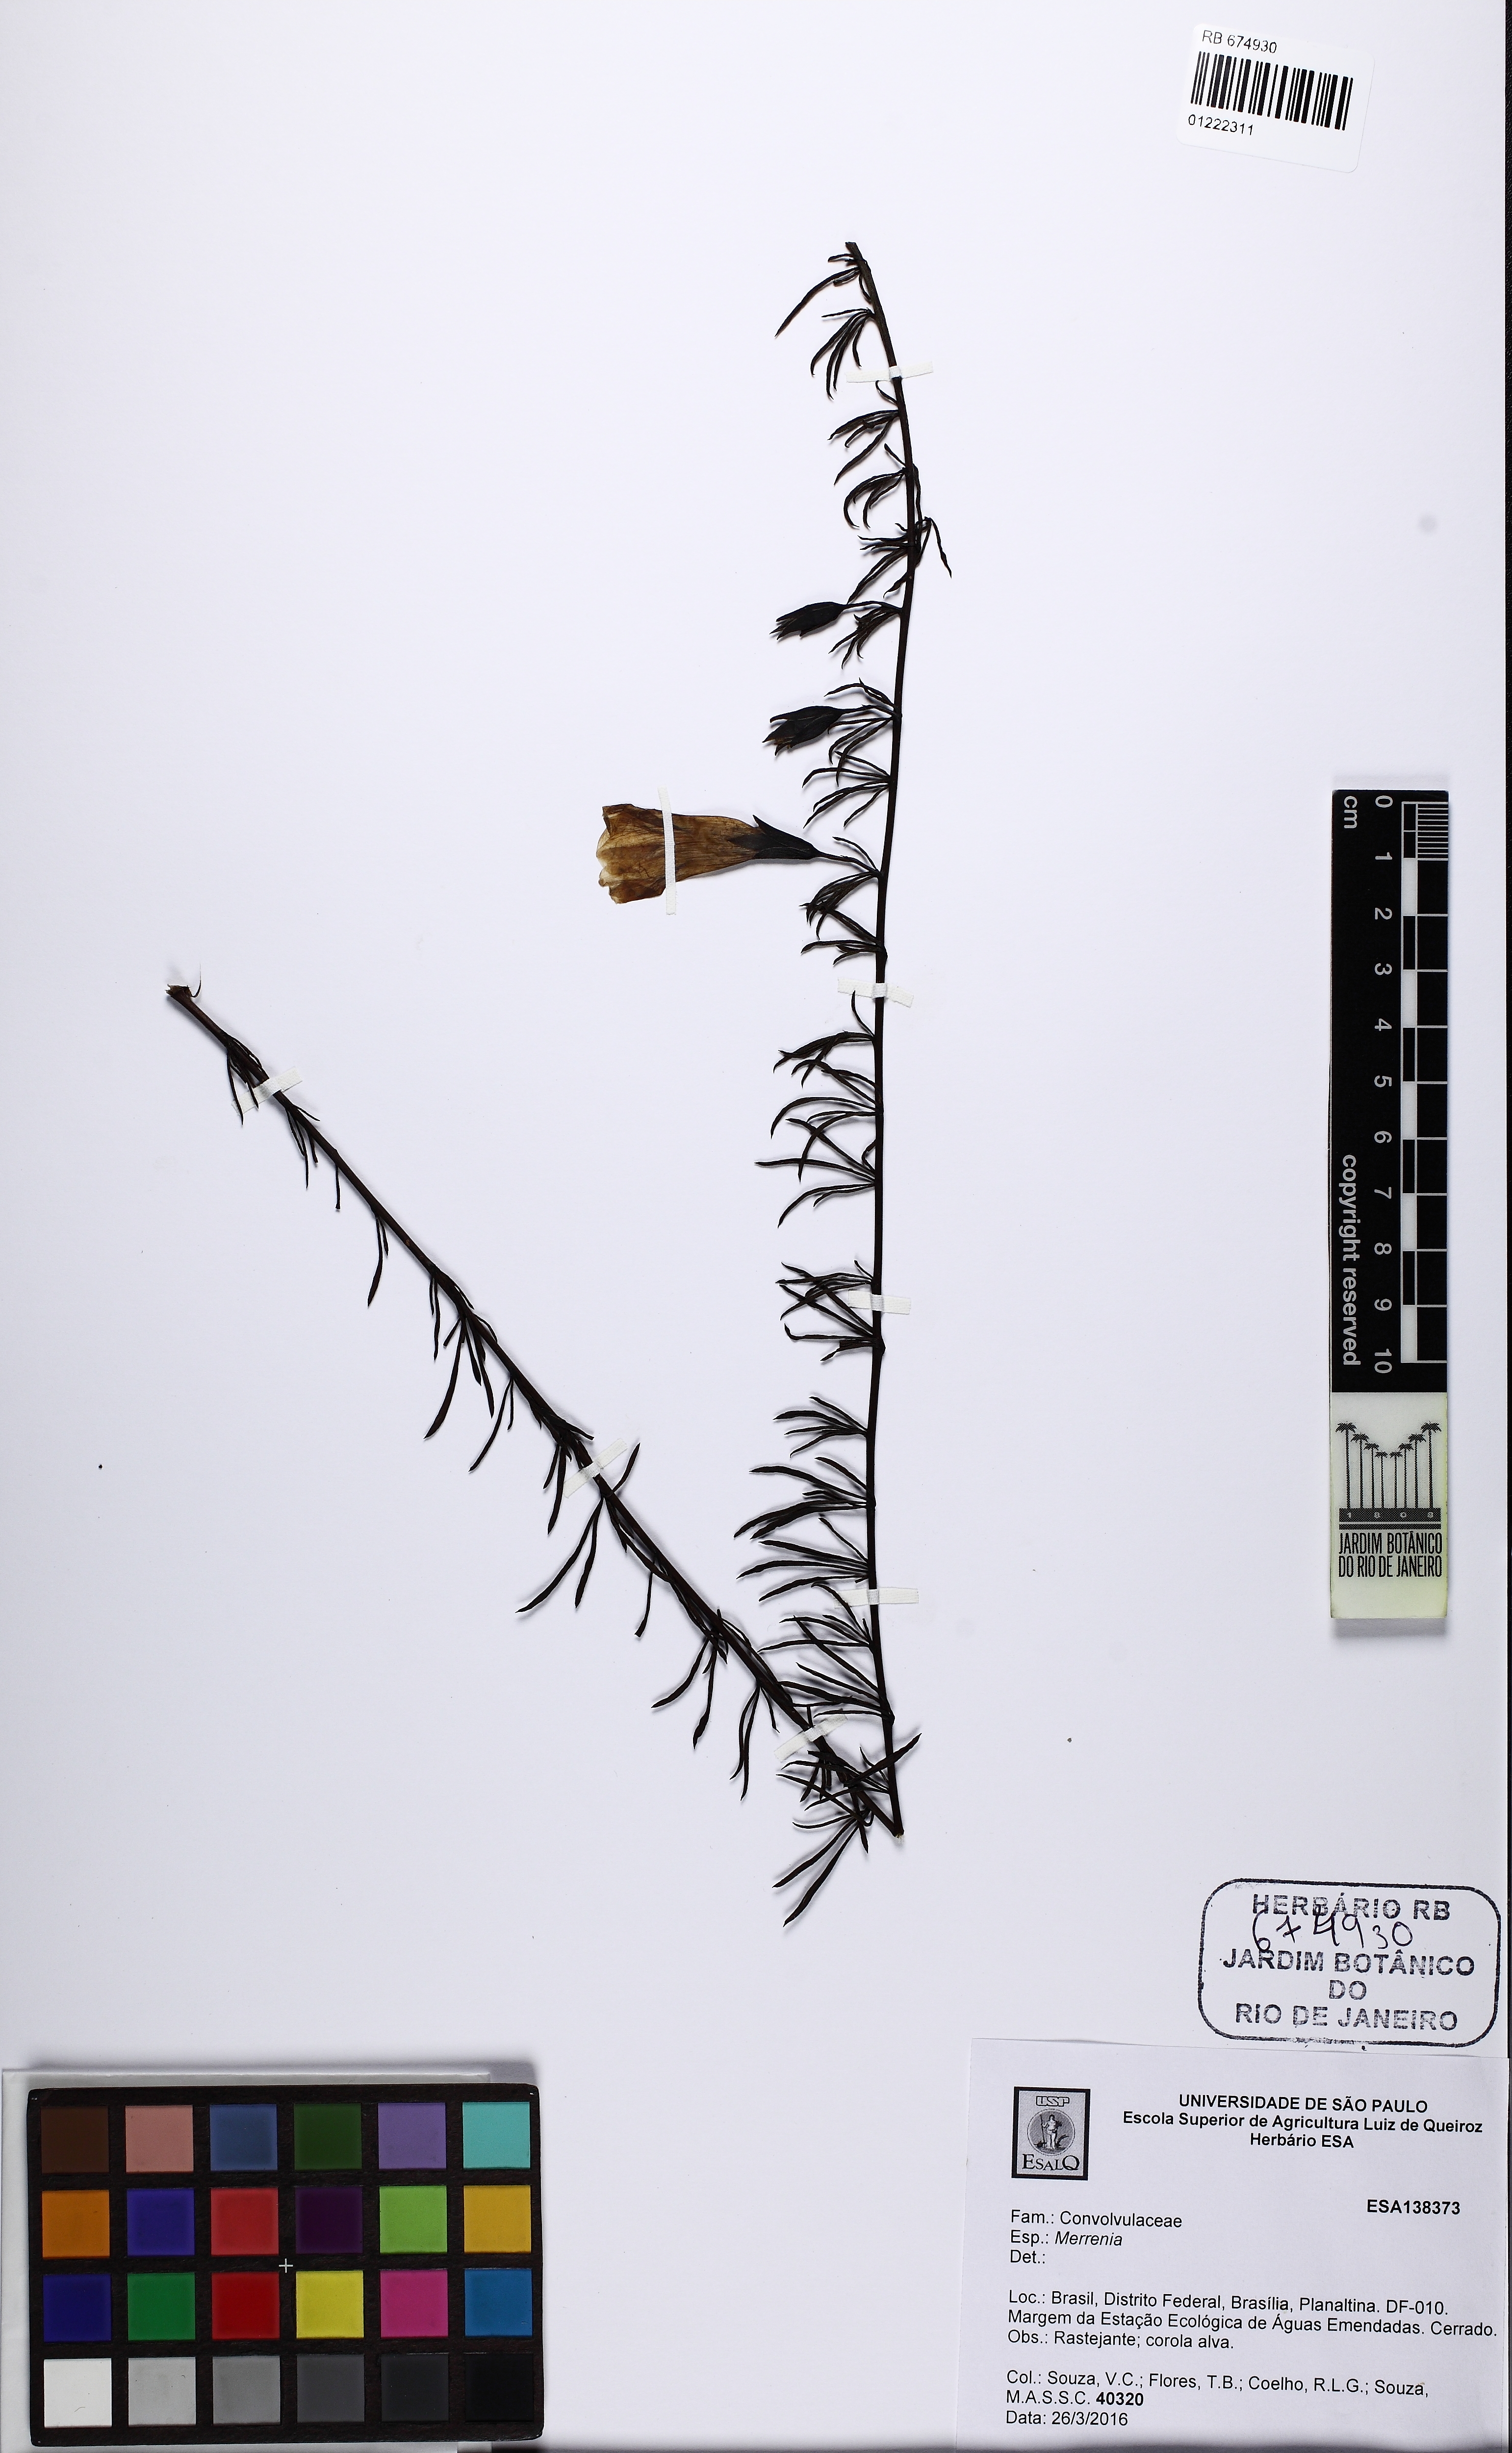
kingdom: Plantae
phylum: Tracheophyta
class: Magnoliopsida
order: Solanales
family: Convolvulaceae
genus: Distimake
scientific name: Distimake digitatus
